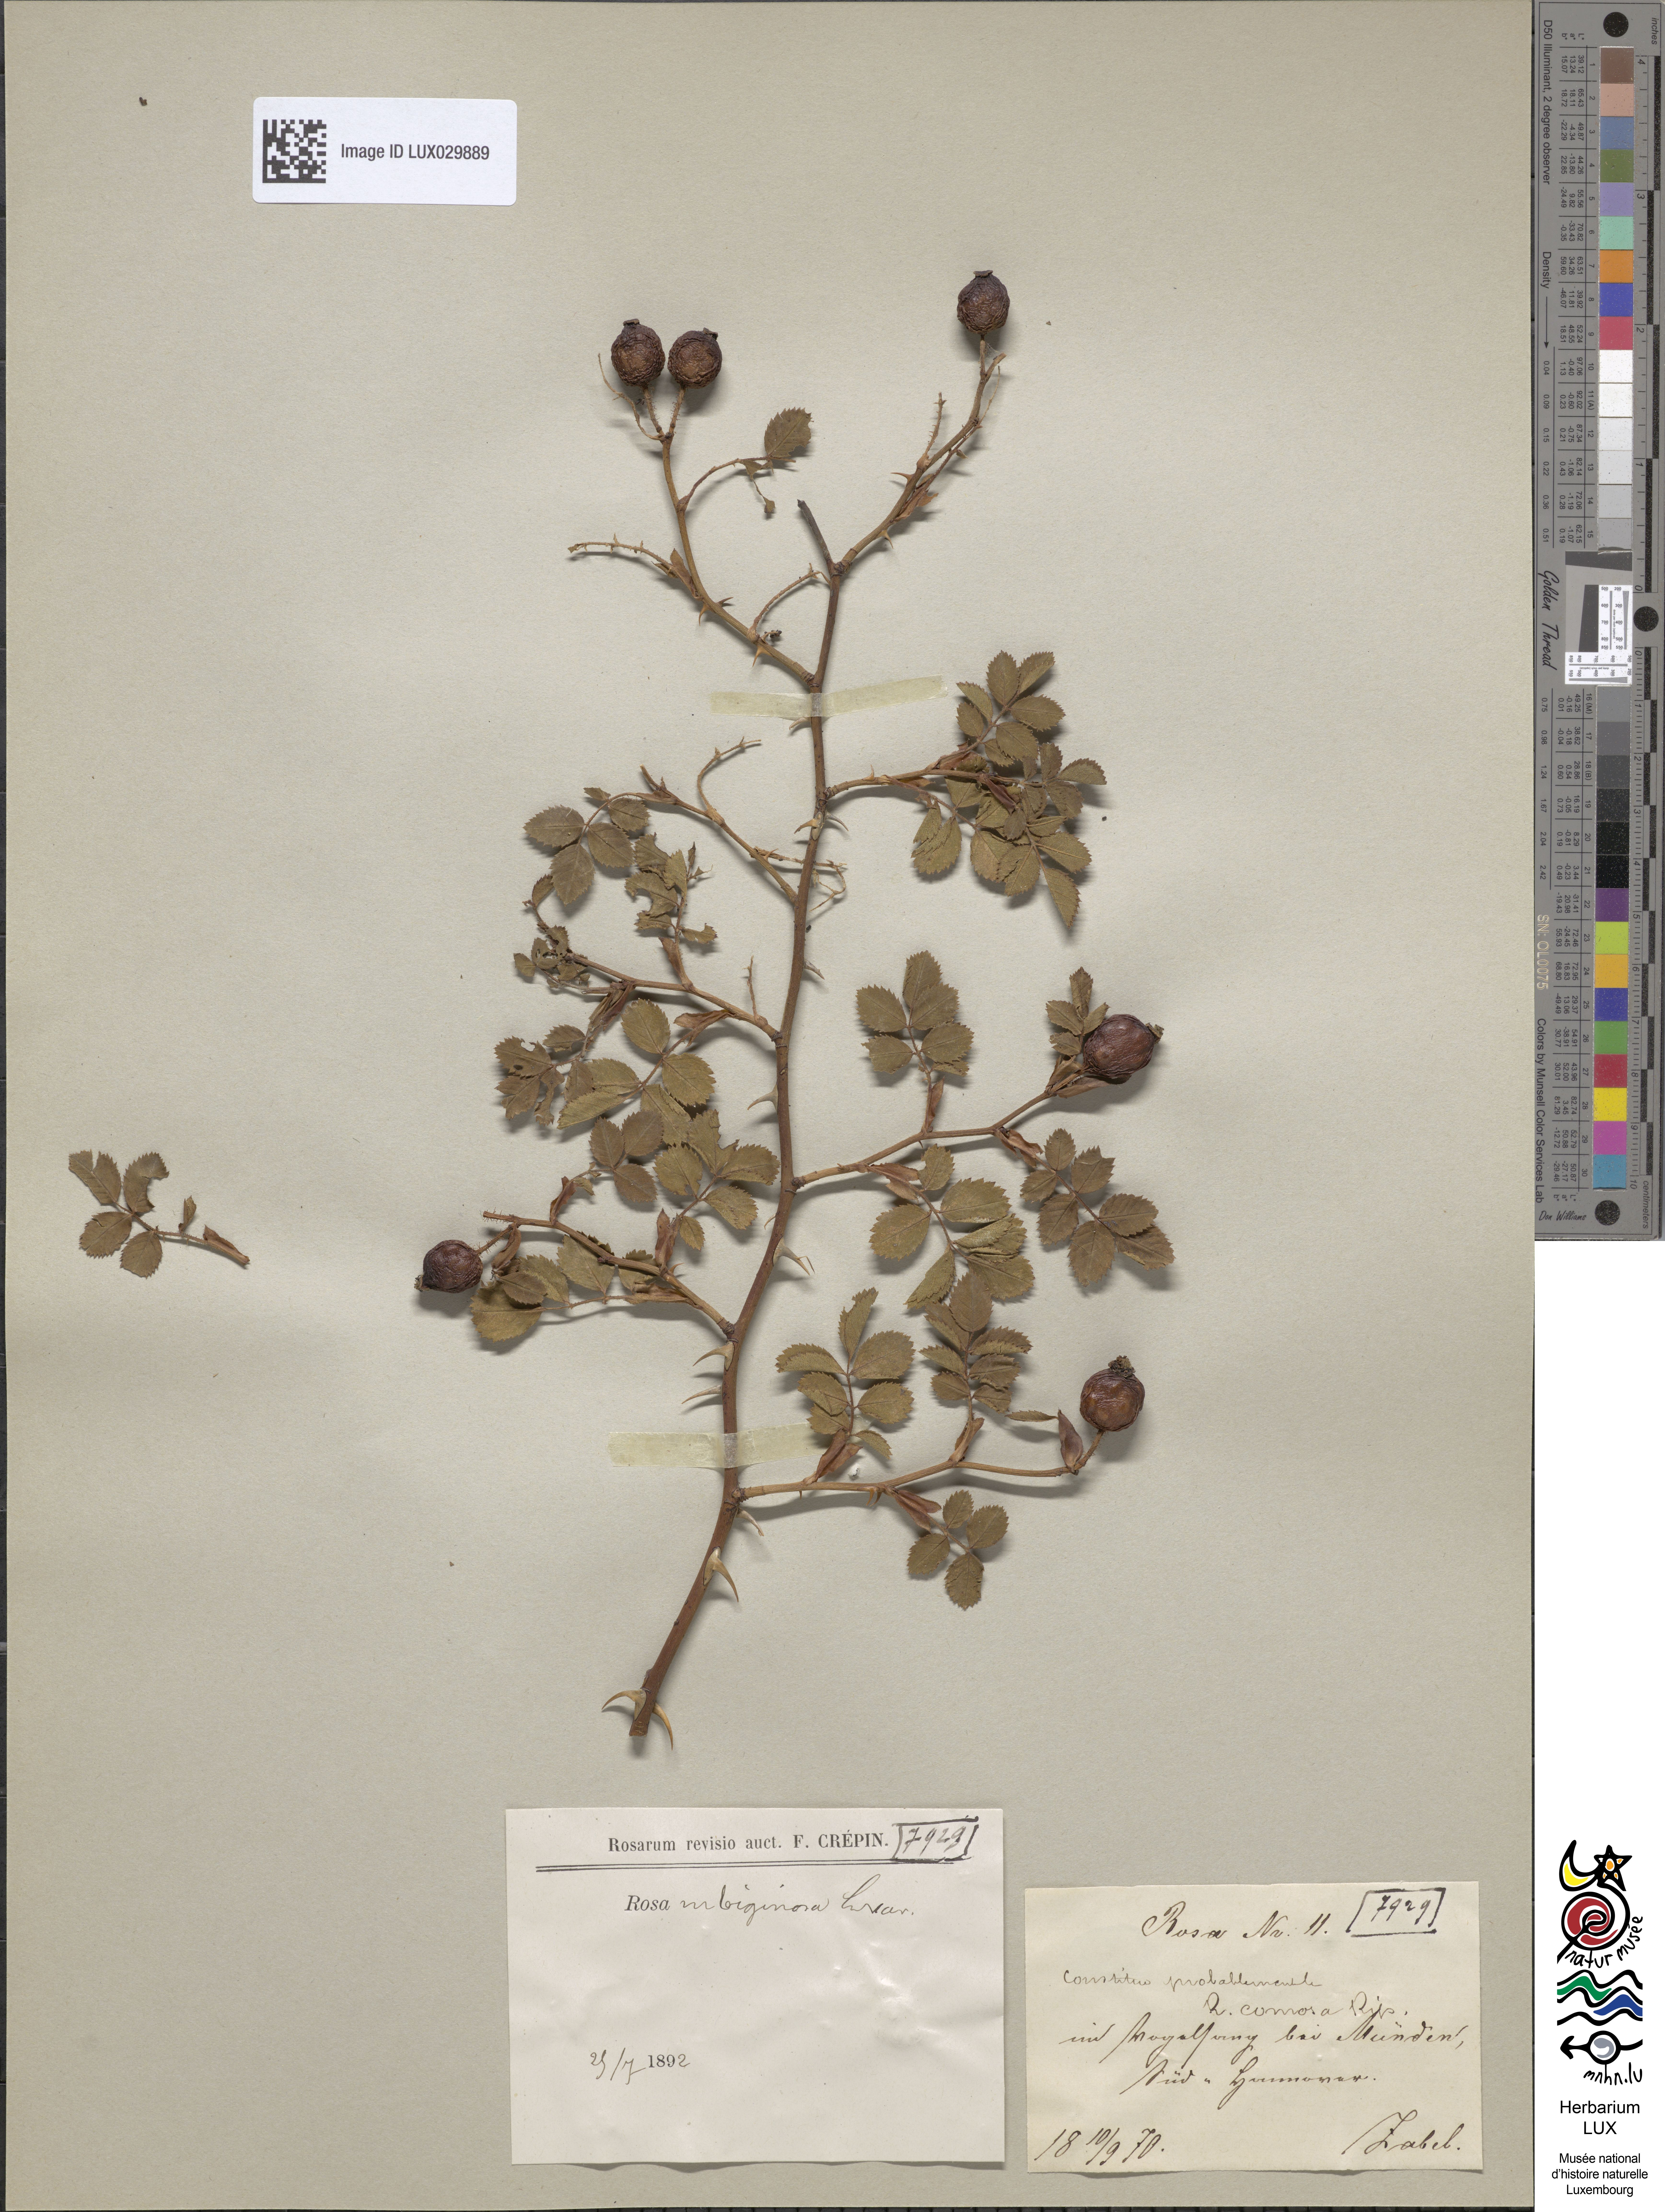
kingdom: Plantae
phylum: Tracheophyta
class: Magnoliopsida
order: Rosales
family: Rosaceae
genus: Rosa
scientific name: Rosa rubiginosa
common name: Sweet-briar
